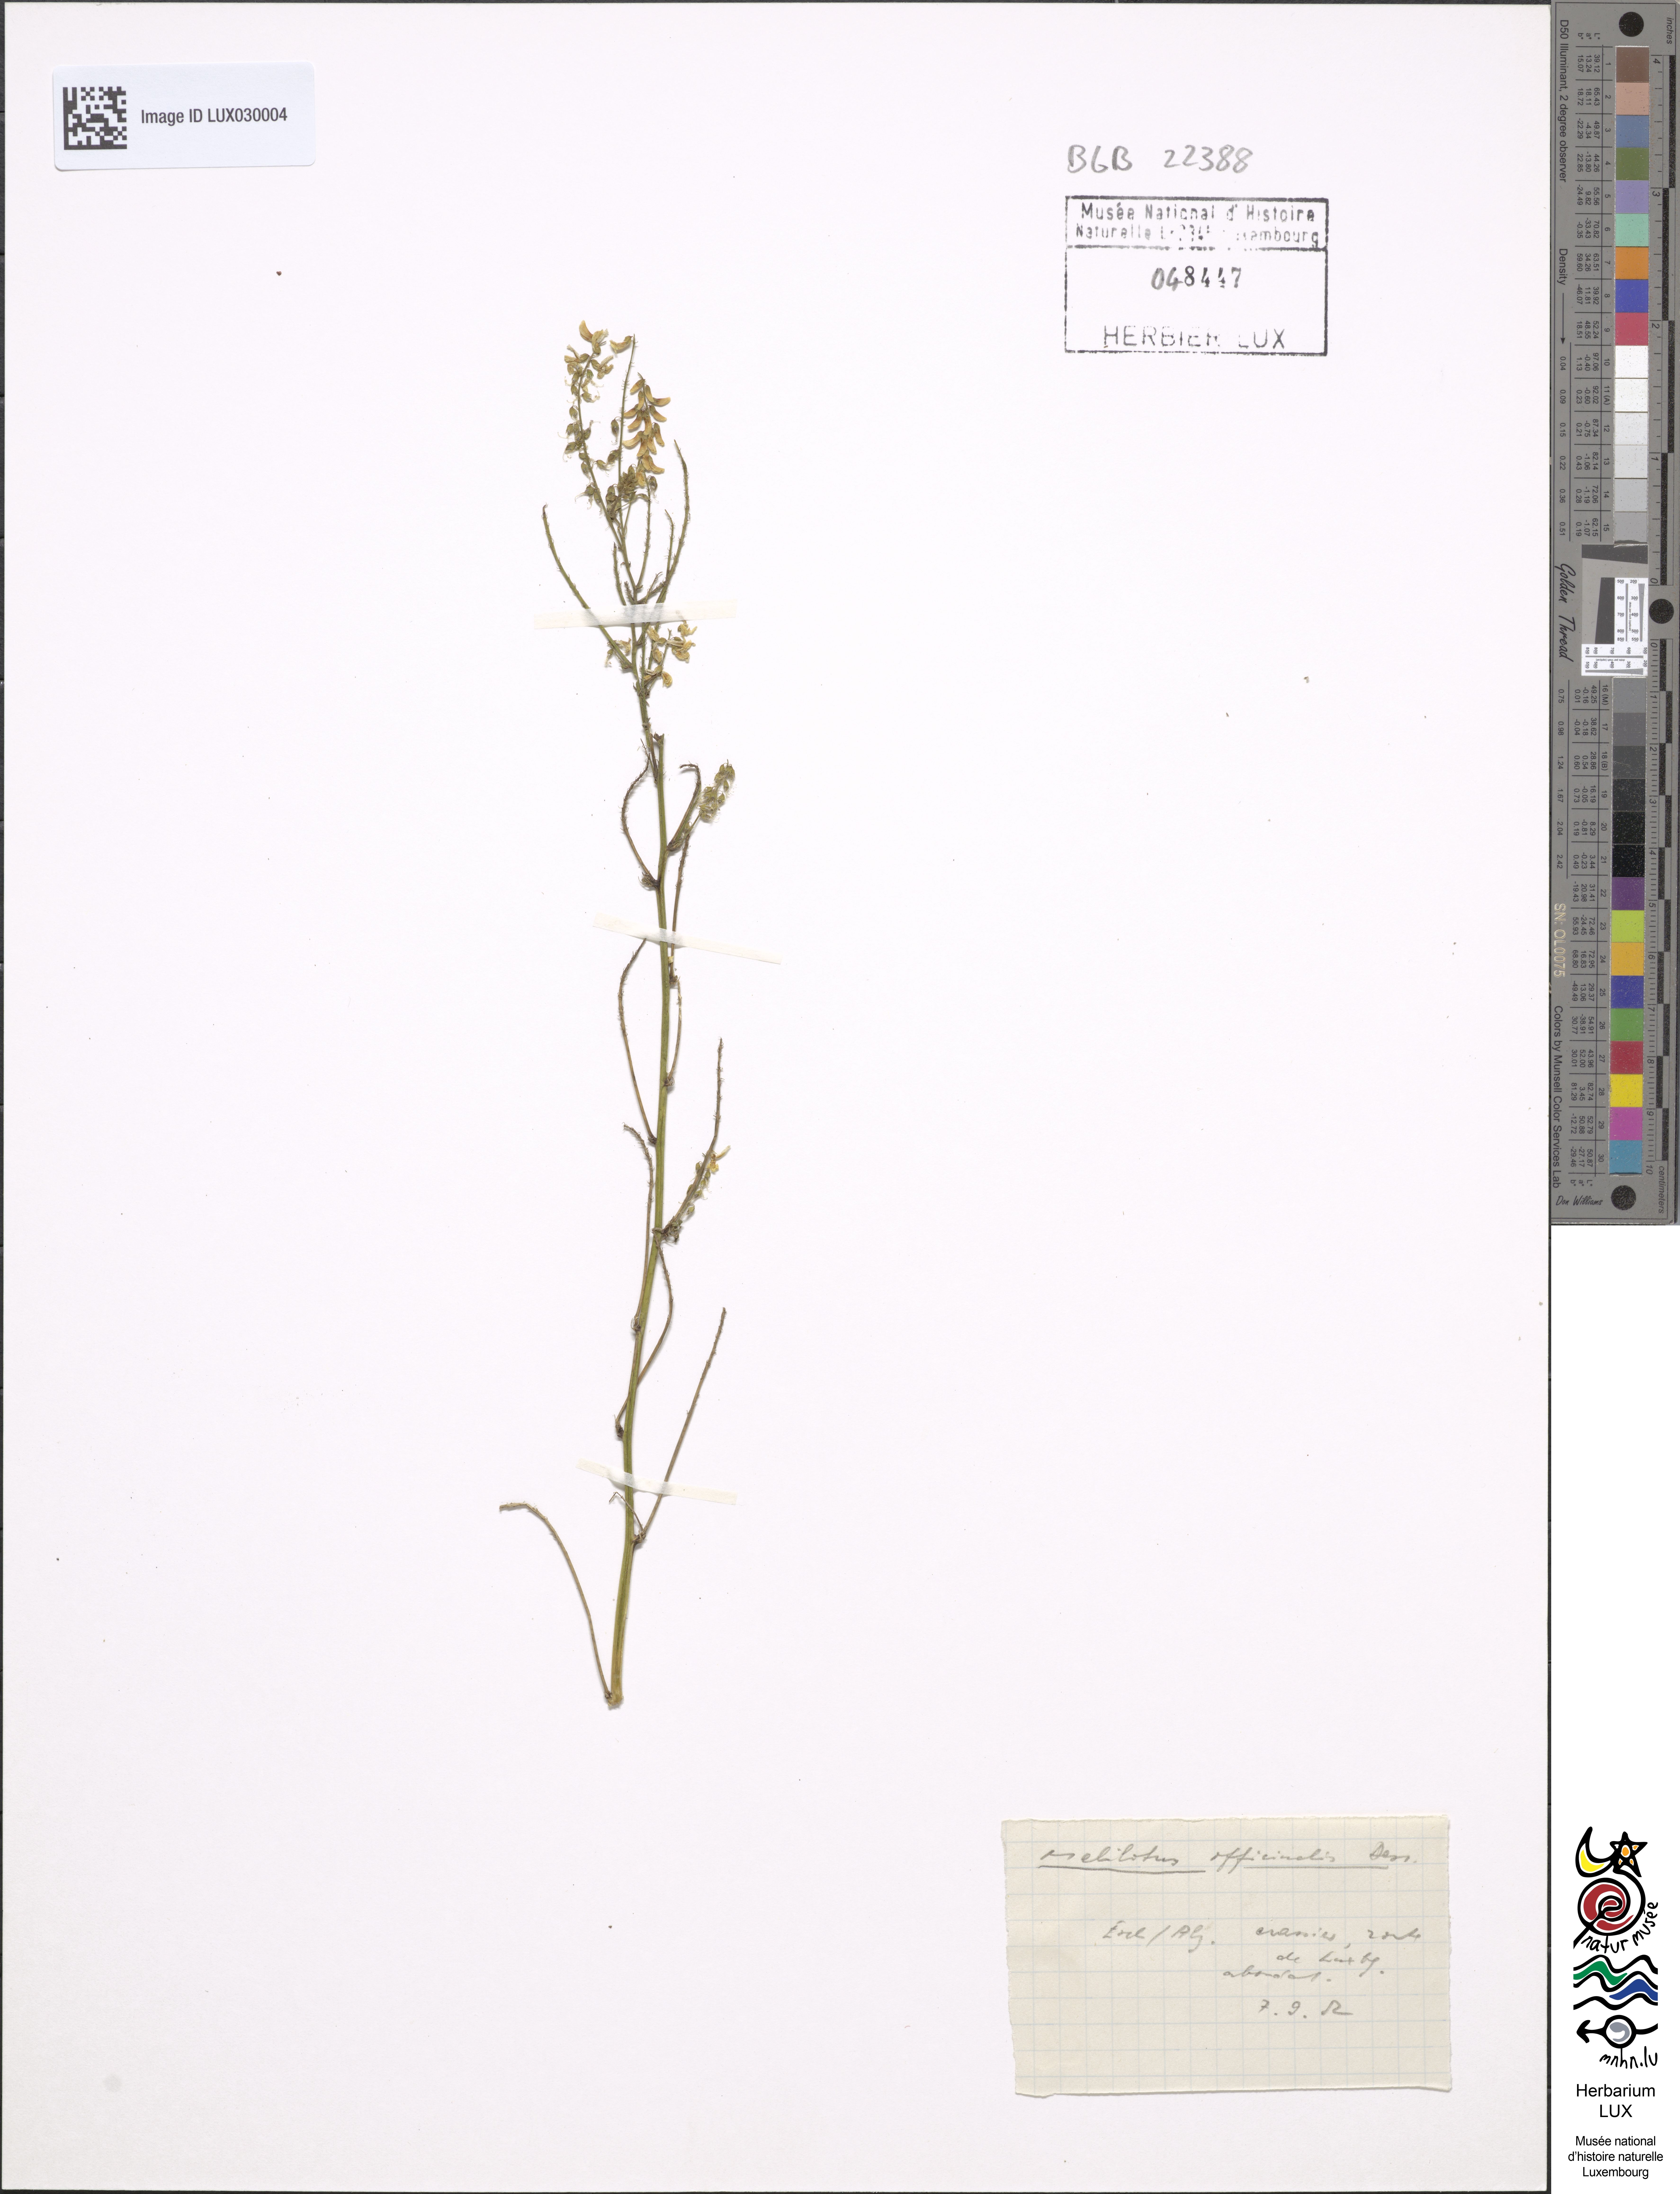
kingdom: Plantae
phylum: Tracheophyta
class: Magnoliopsida
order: Fabales
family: Fabaceae
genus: Melilotus
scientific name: Melilotus officinalis
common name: Sweetclover
